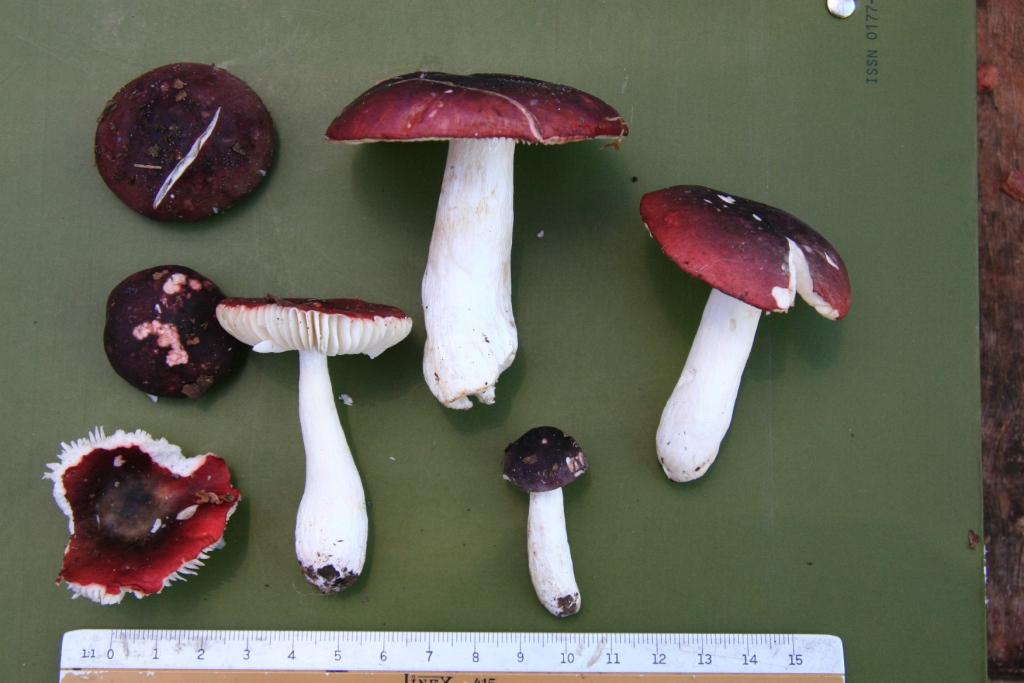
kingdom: Fungi
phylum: Basidiomycota
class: Agaricomycetes
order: Russulales
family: Russulaceae
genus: Russula
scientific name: Russula laccata
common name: klit-skørhat
